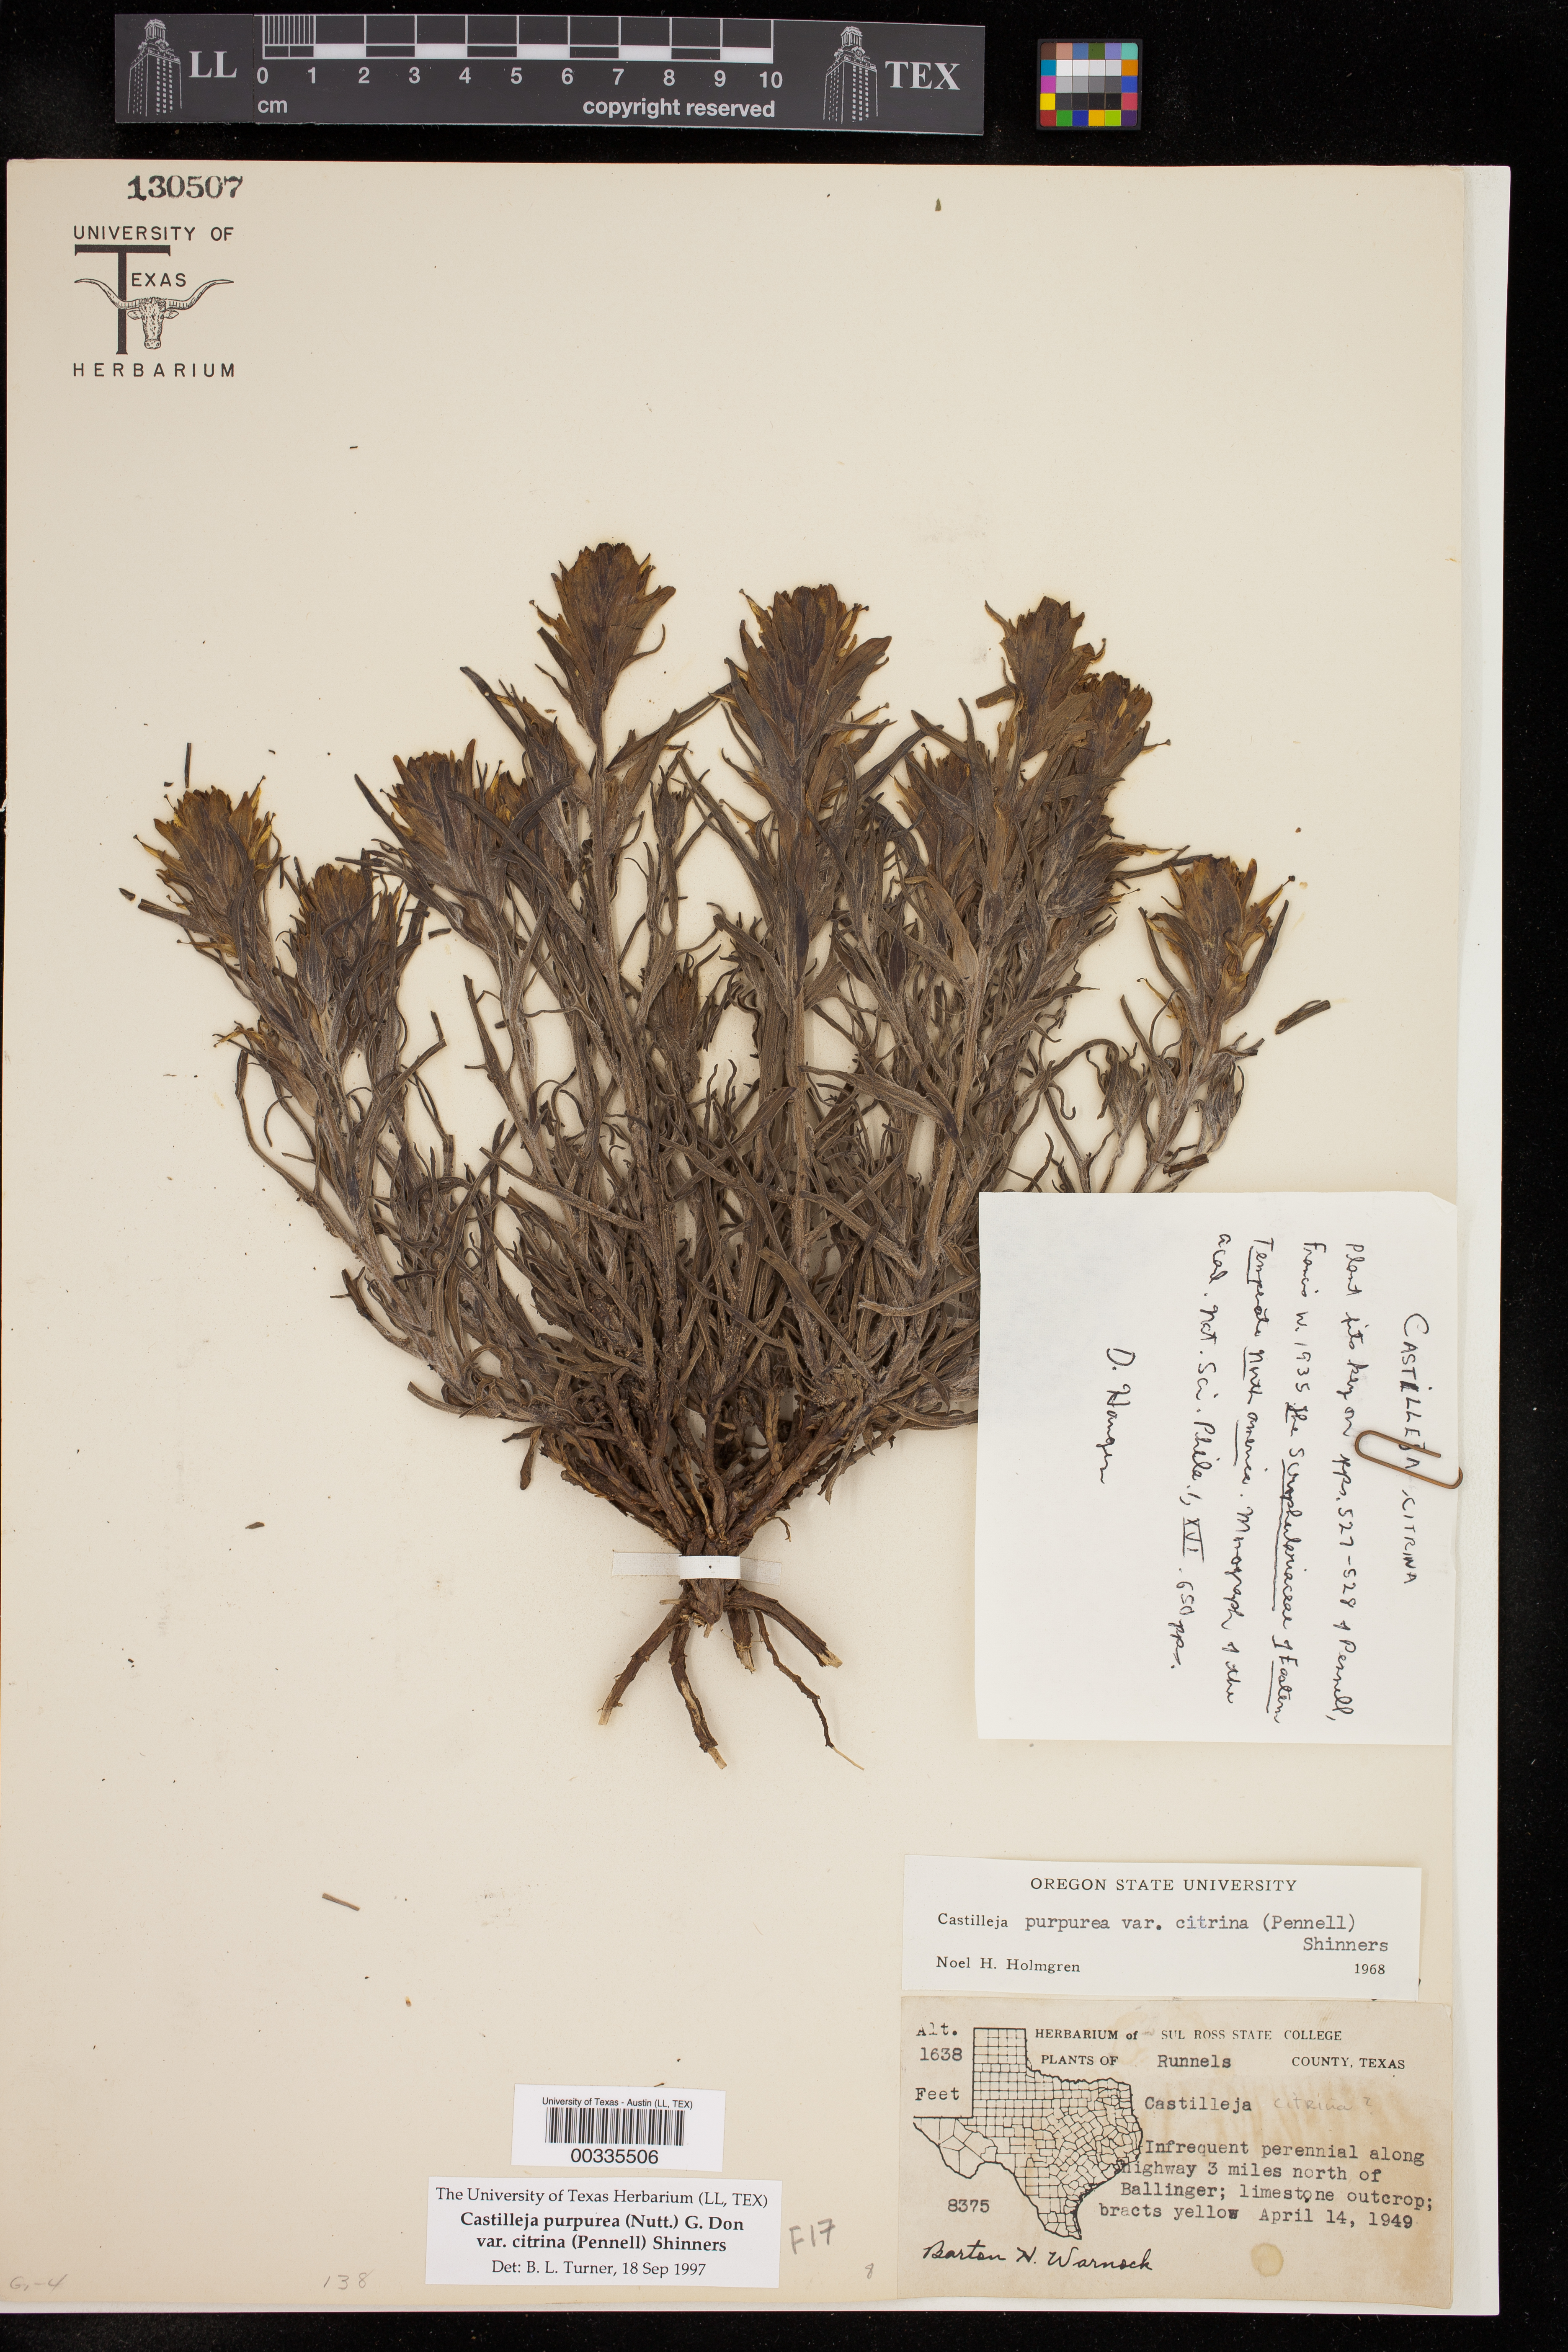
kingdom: Plantae
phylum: Tracheophyta
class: Magnoliopsida
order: Lamiales
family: Orobanchaceae
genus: Castilleja
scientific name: Castilleja citrina
